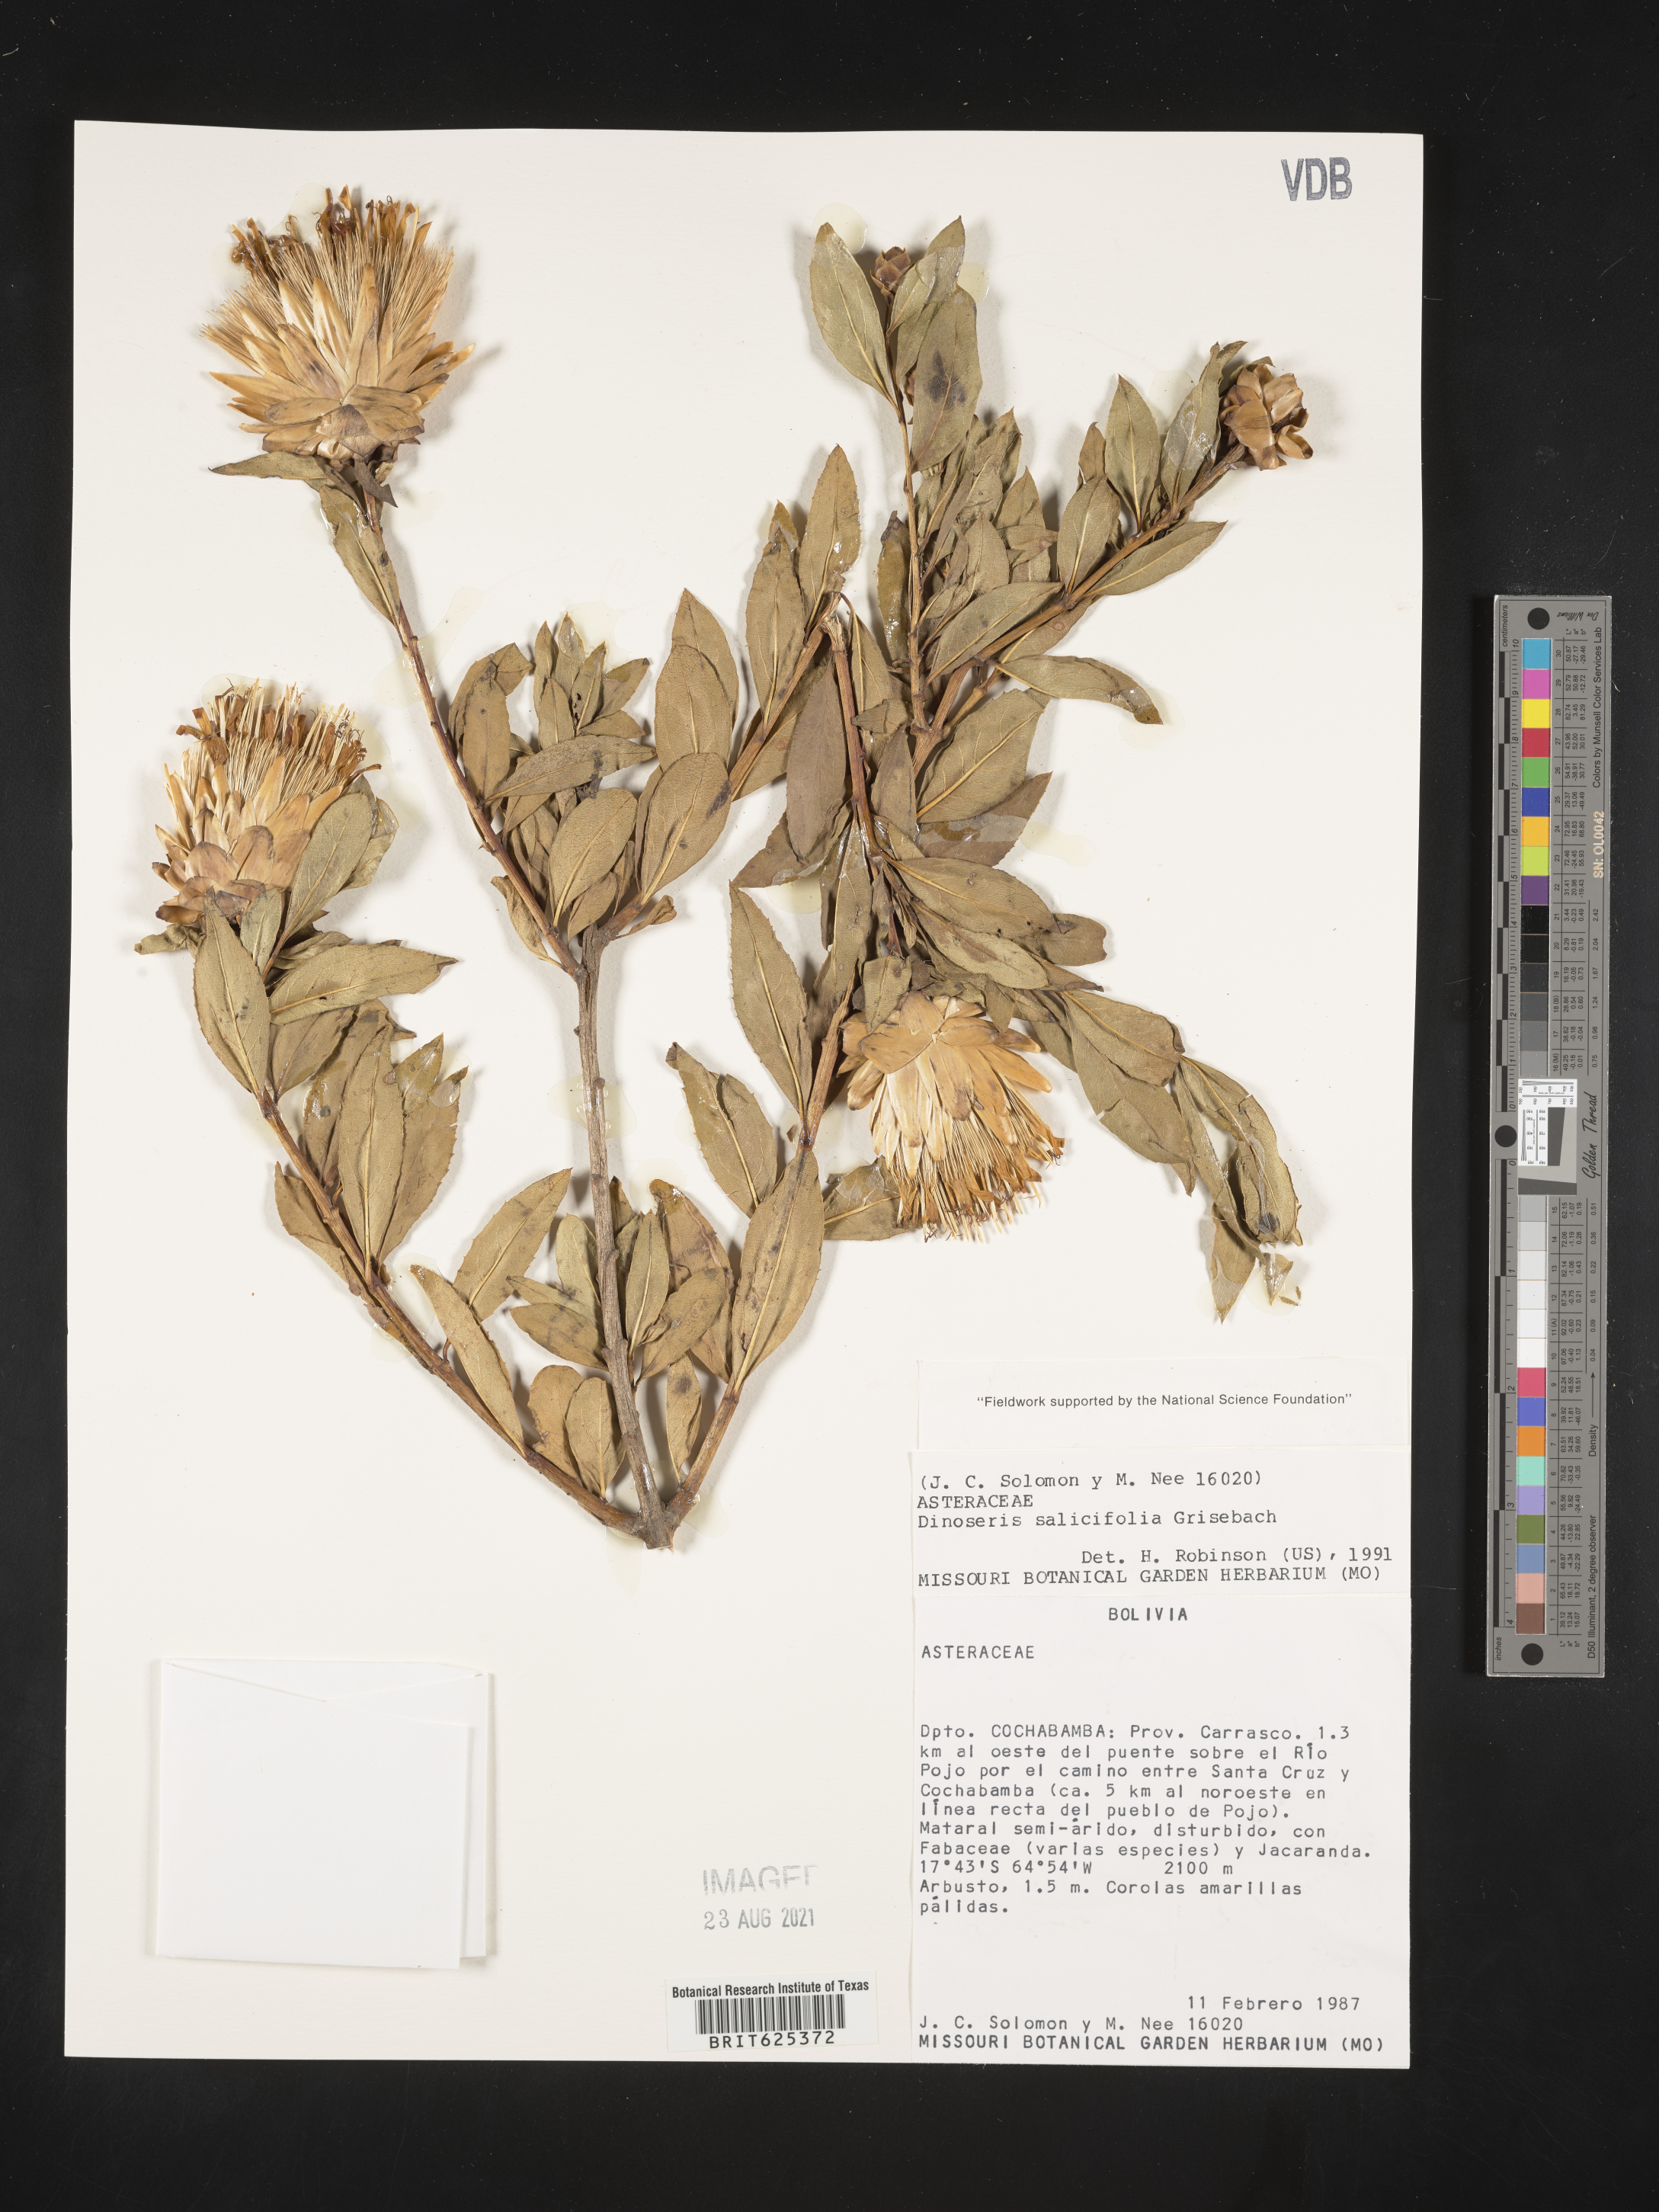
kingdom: Plantae
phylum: Tracheophyta
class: Magnoliopsida
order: Asterales
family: Asteraceae
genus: Hyaloseris
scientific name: Hyaloseris salicifolia
